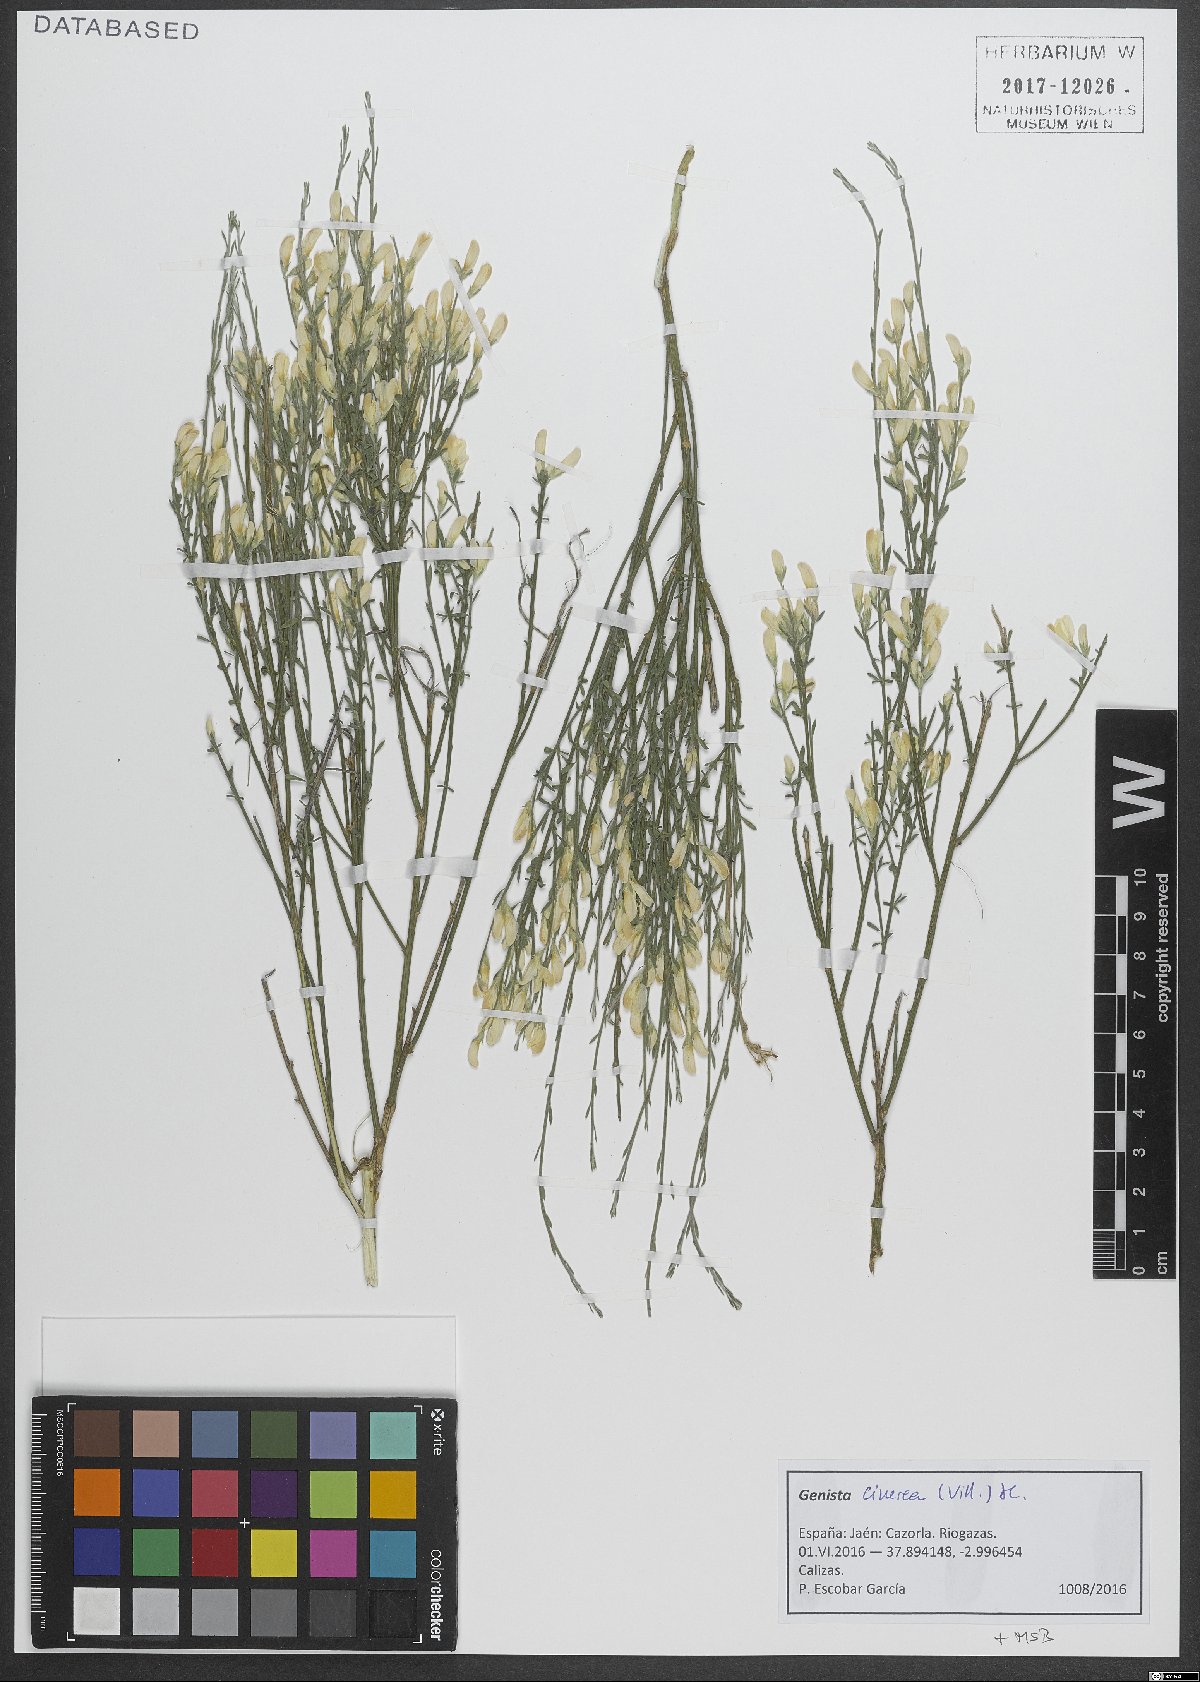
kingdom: Plantae
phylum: Tracheophyta
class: Magnoliopsida
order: Fabales
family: Fabaceae
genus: Genista
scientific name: Genista cinerea
